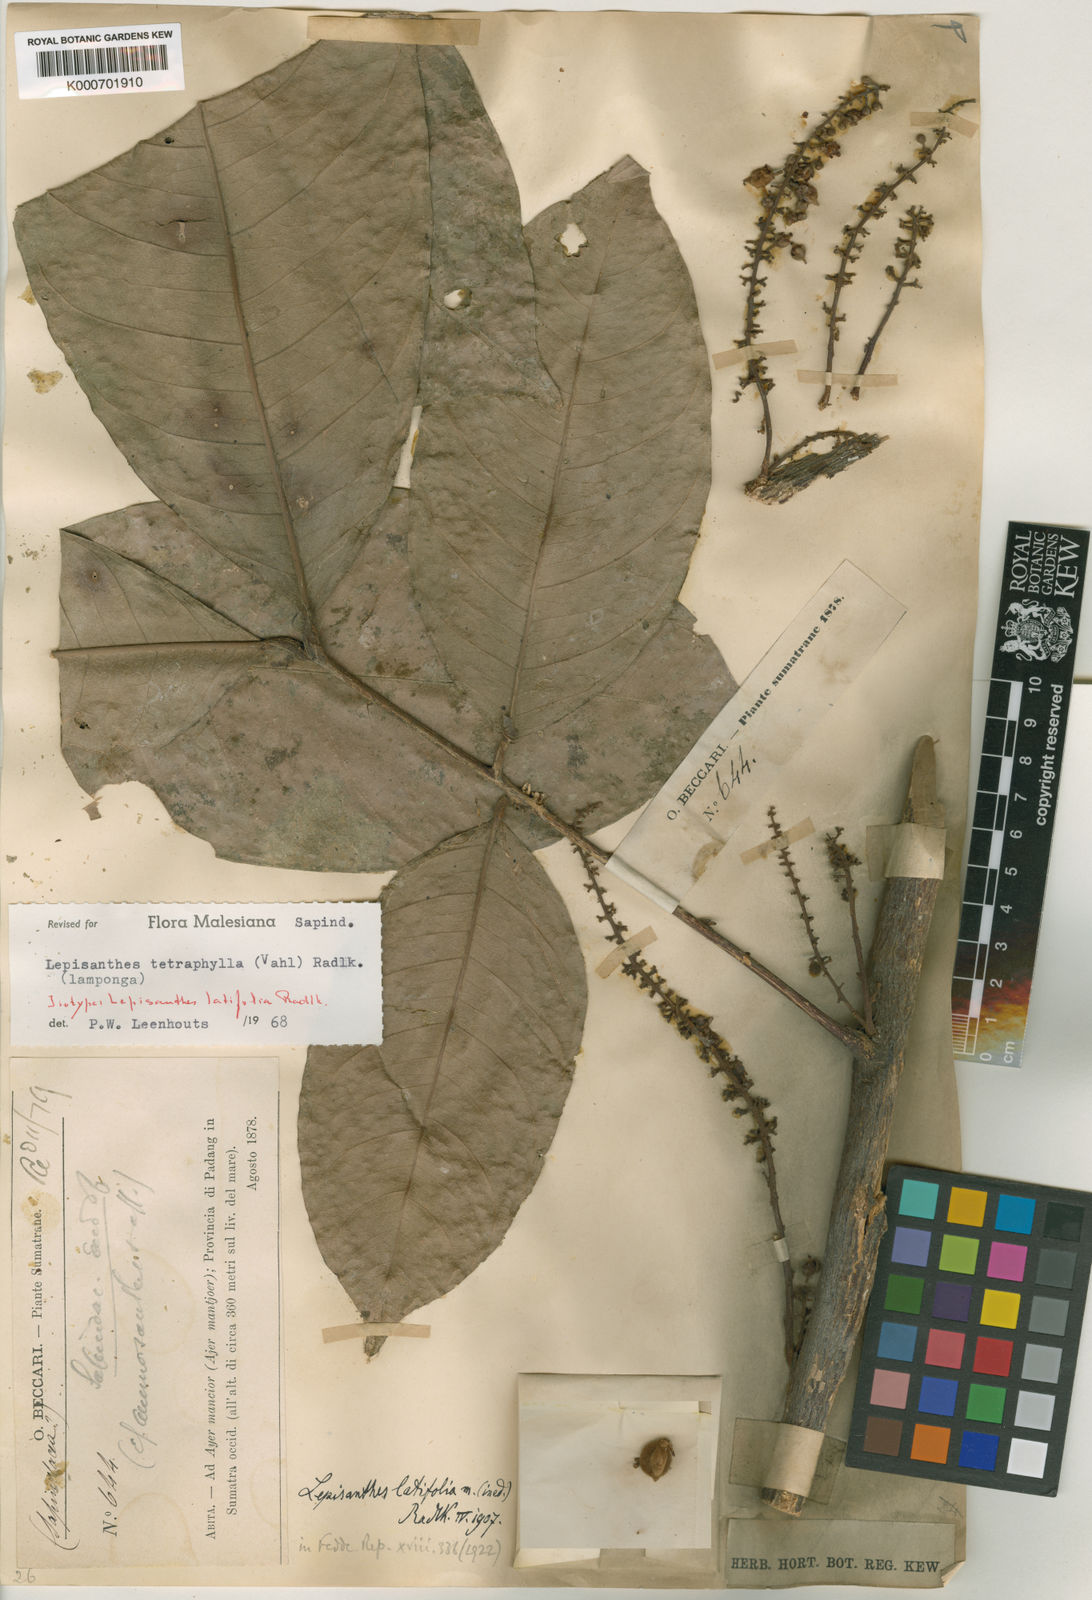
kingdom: Plantae
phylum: Tracheophyta
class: Magnoliopsida
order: Sapindales
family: Sapindaceae
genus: Lepisanthes
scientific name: Lepisanthes tetraphylla
